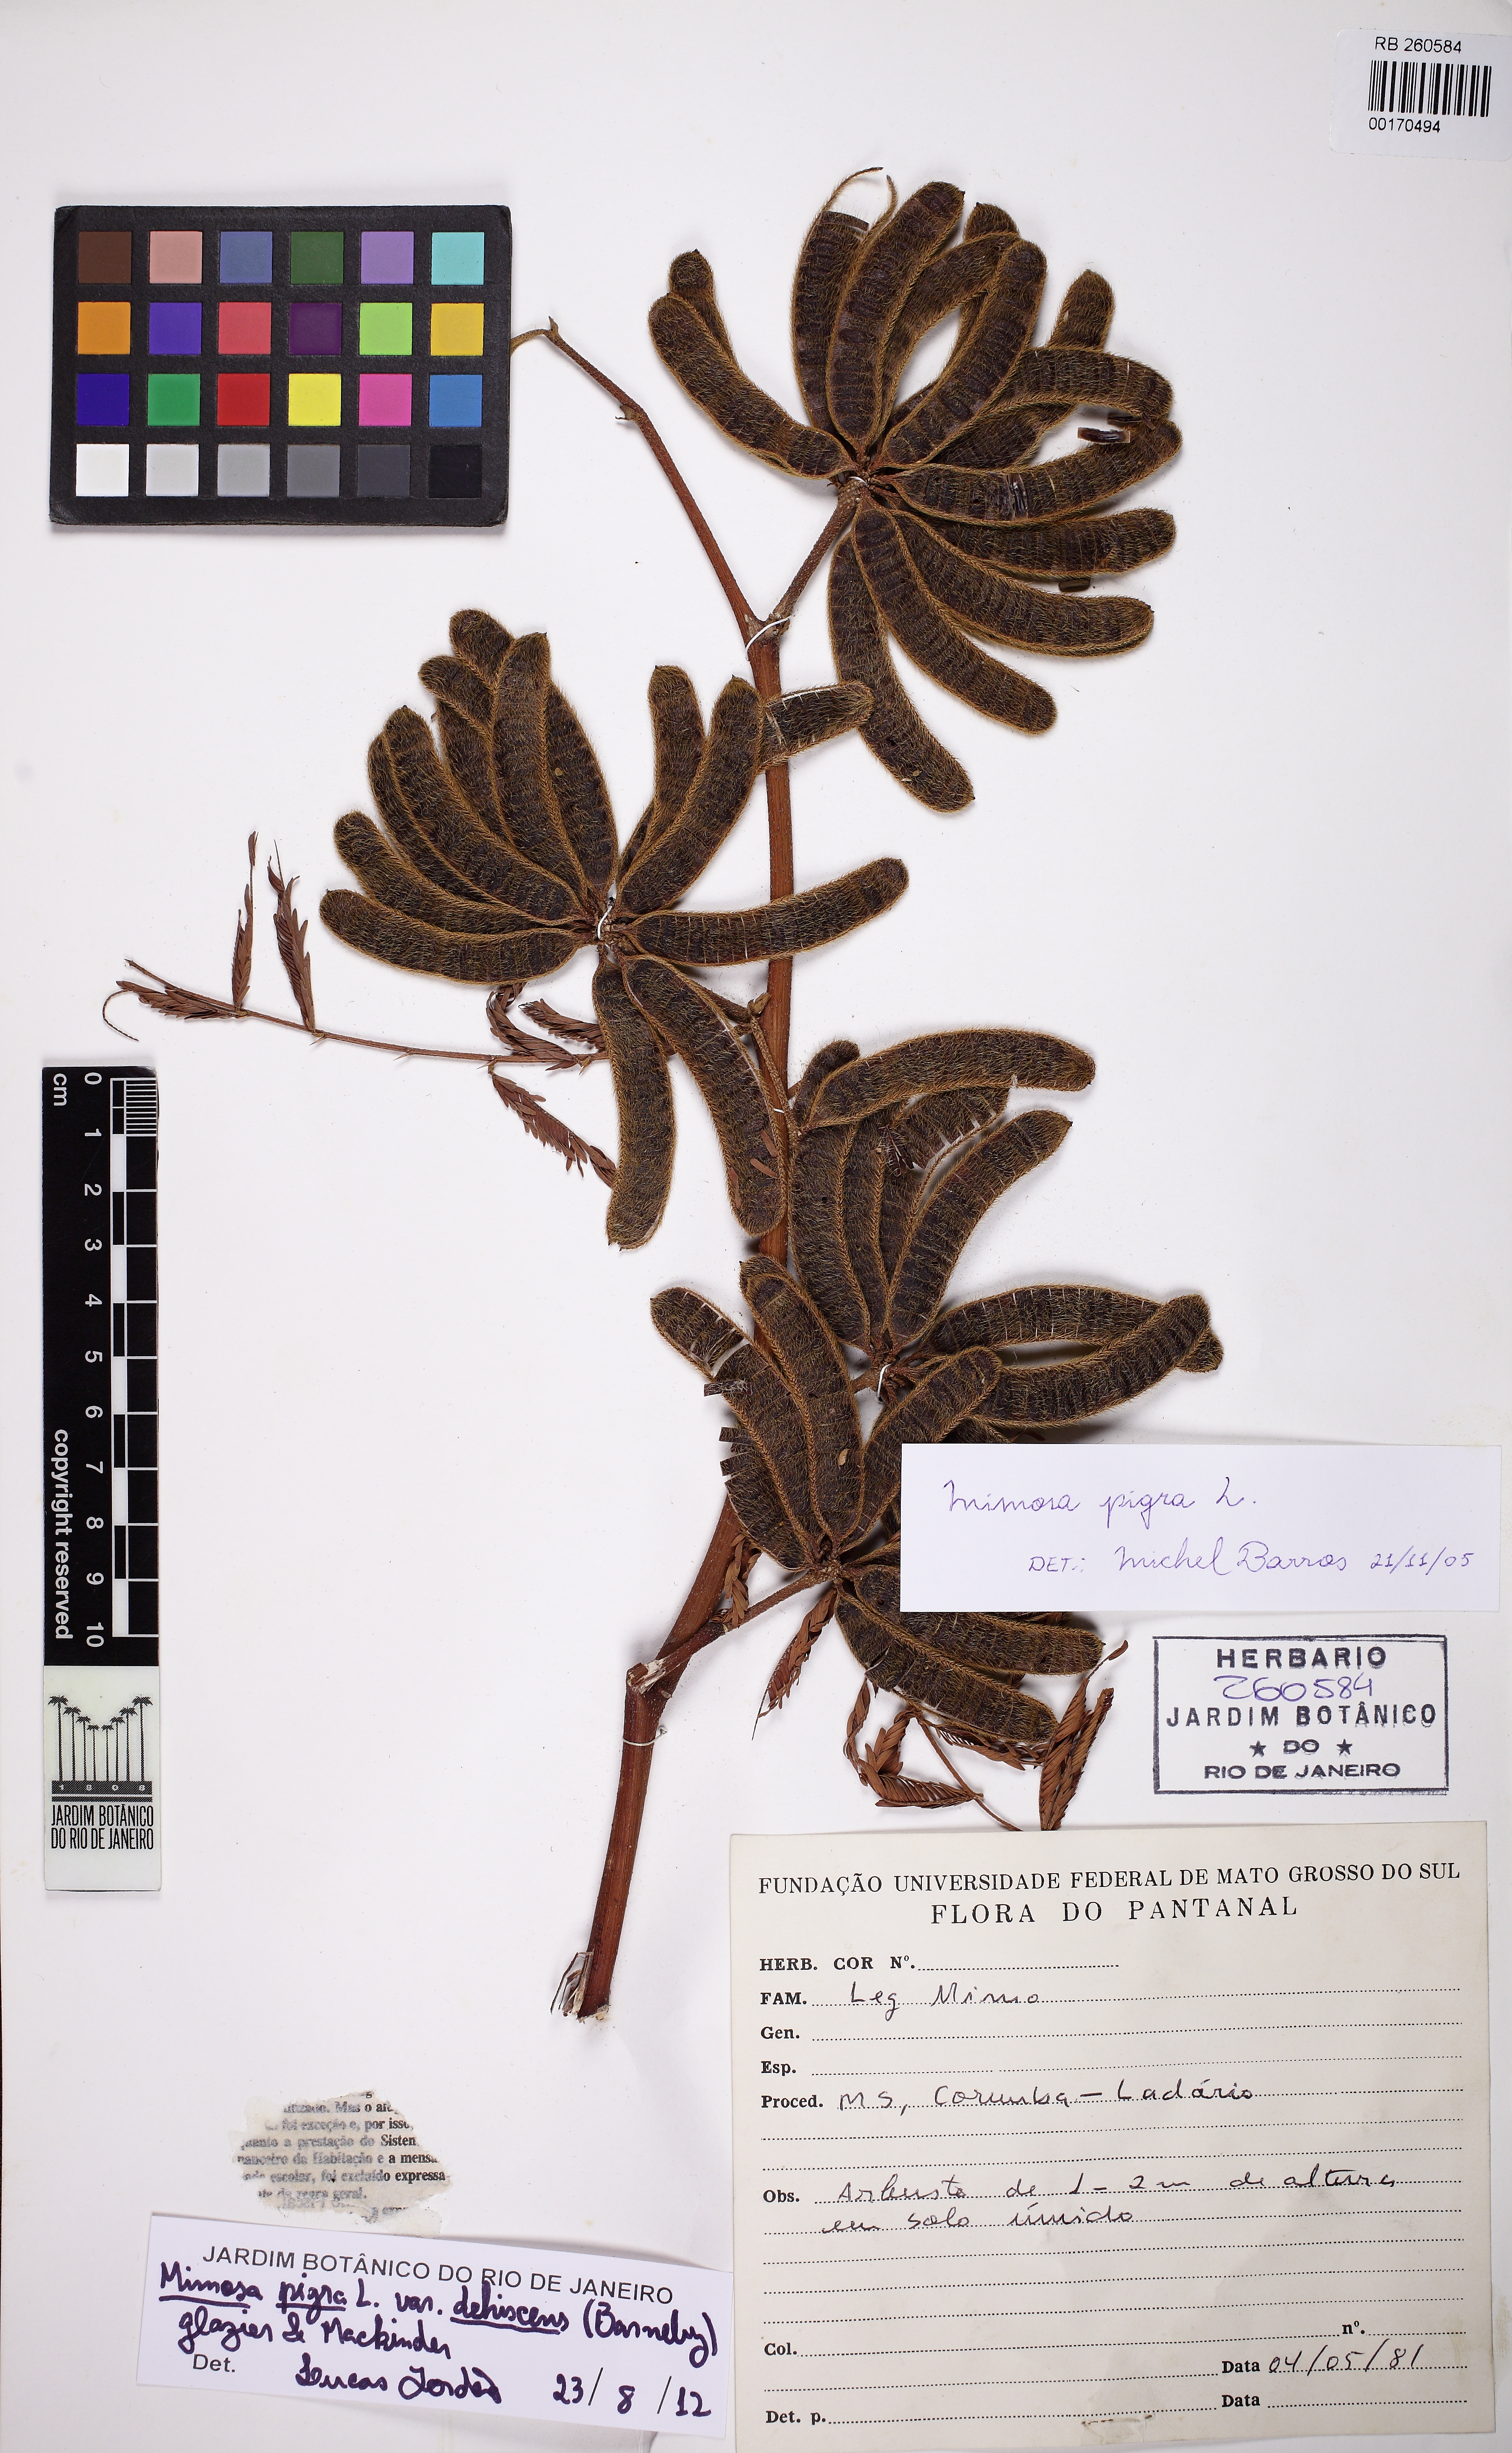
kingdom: Plantae
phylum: Tracheophyta
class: Magnoliopsida
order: Fabales
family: Fabaceae
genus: Mimosa
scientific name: Mimosa pigra
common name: Black mimosa
